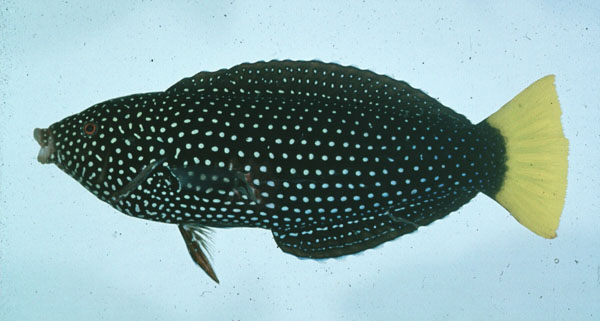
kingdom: Animalia
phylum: Chordata
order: Perciformes
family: Labridae
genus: Anampses
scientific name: Anampses meleagrides
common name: Yellowtail wrasse
